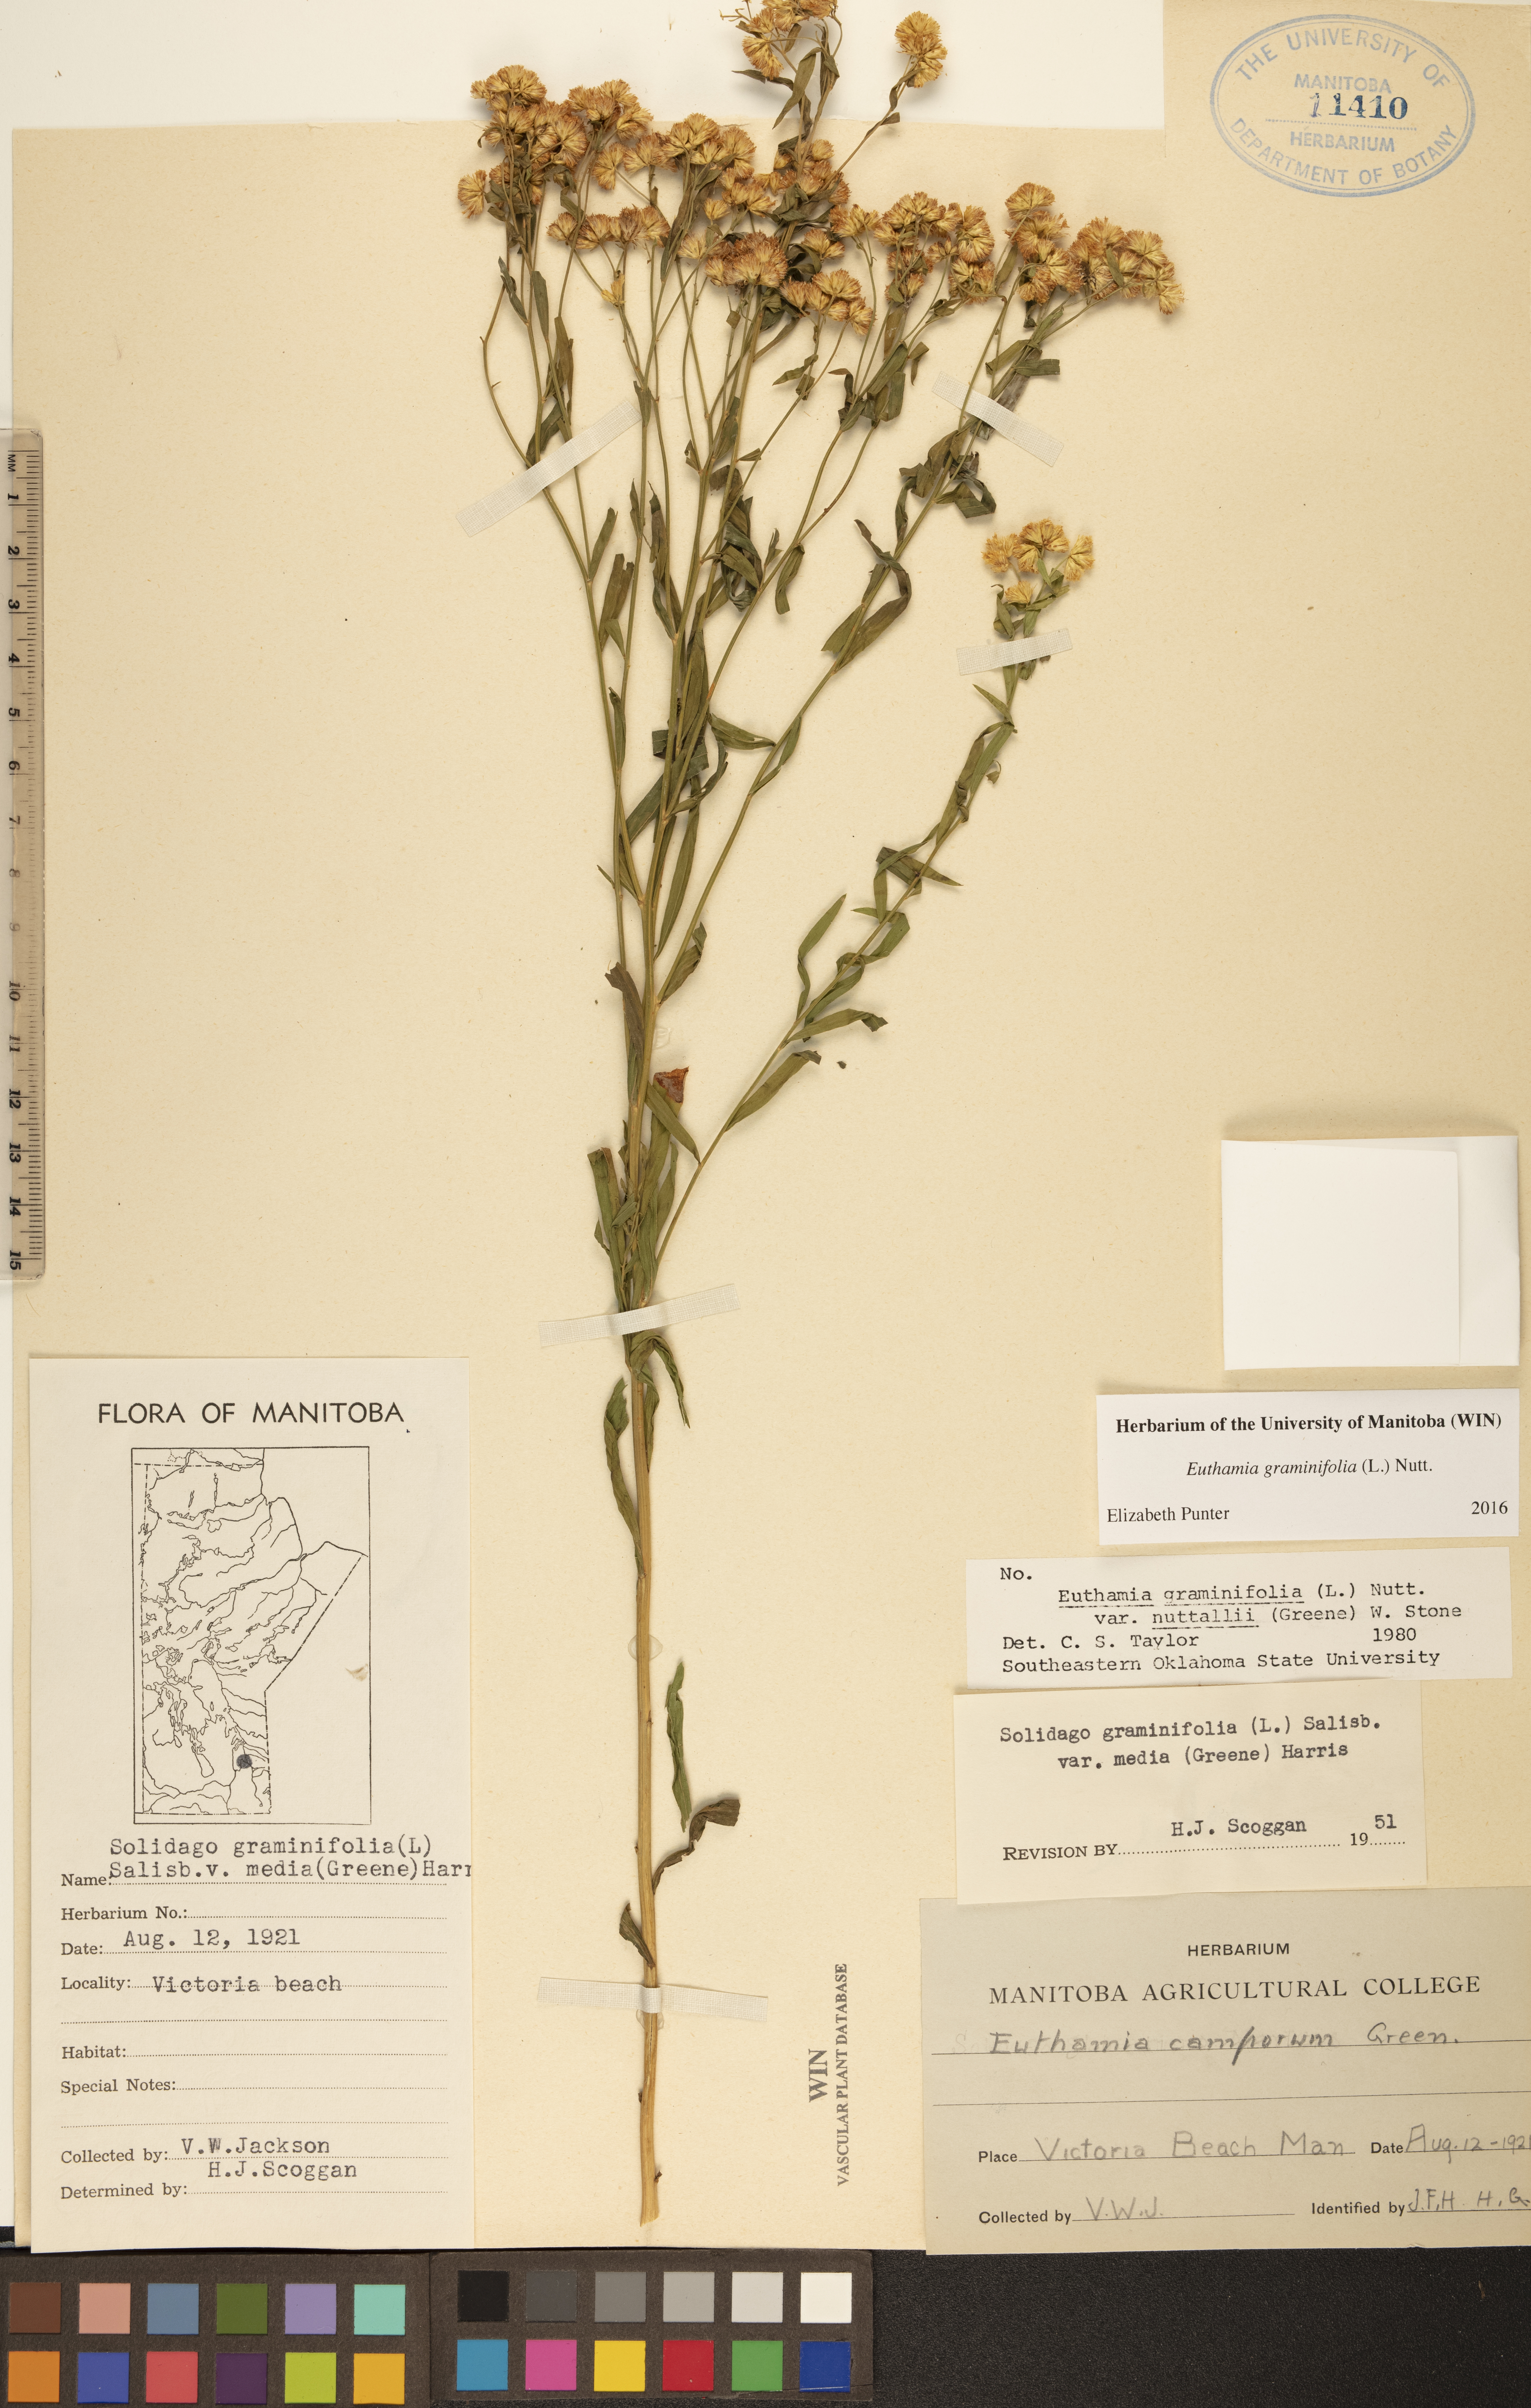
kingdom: Plantae
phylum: Tracheophyta
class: Magnoliopsida
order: Asterales
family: Asteraceae
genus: Euthamia
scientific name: Euthamia graminifolia
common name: Common goldentop
